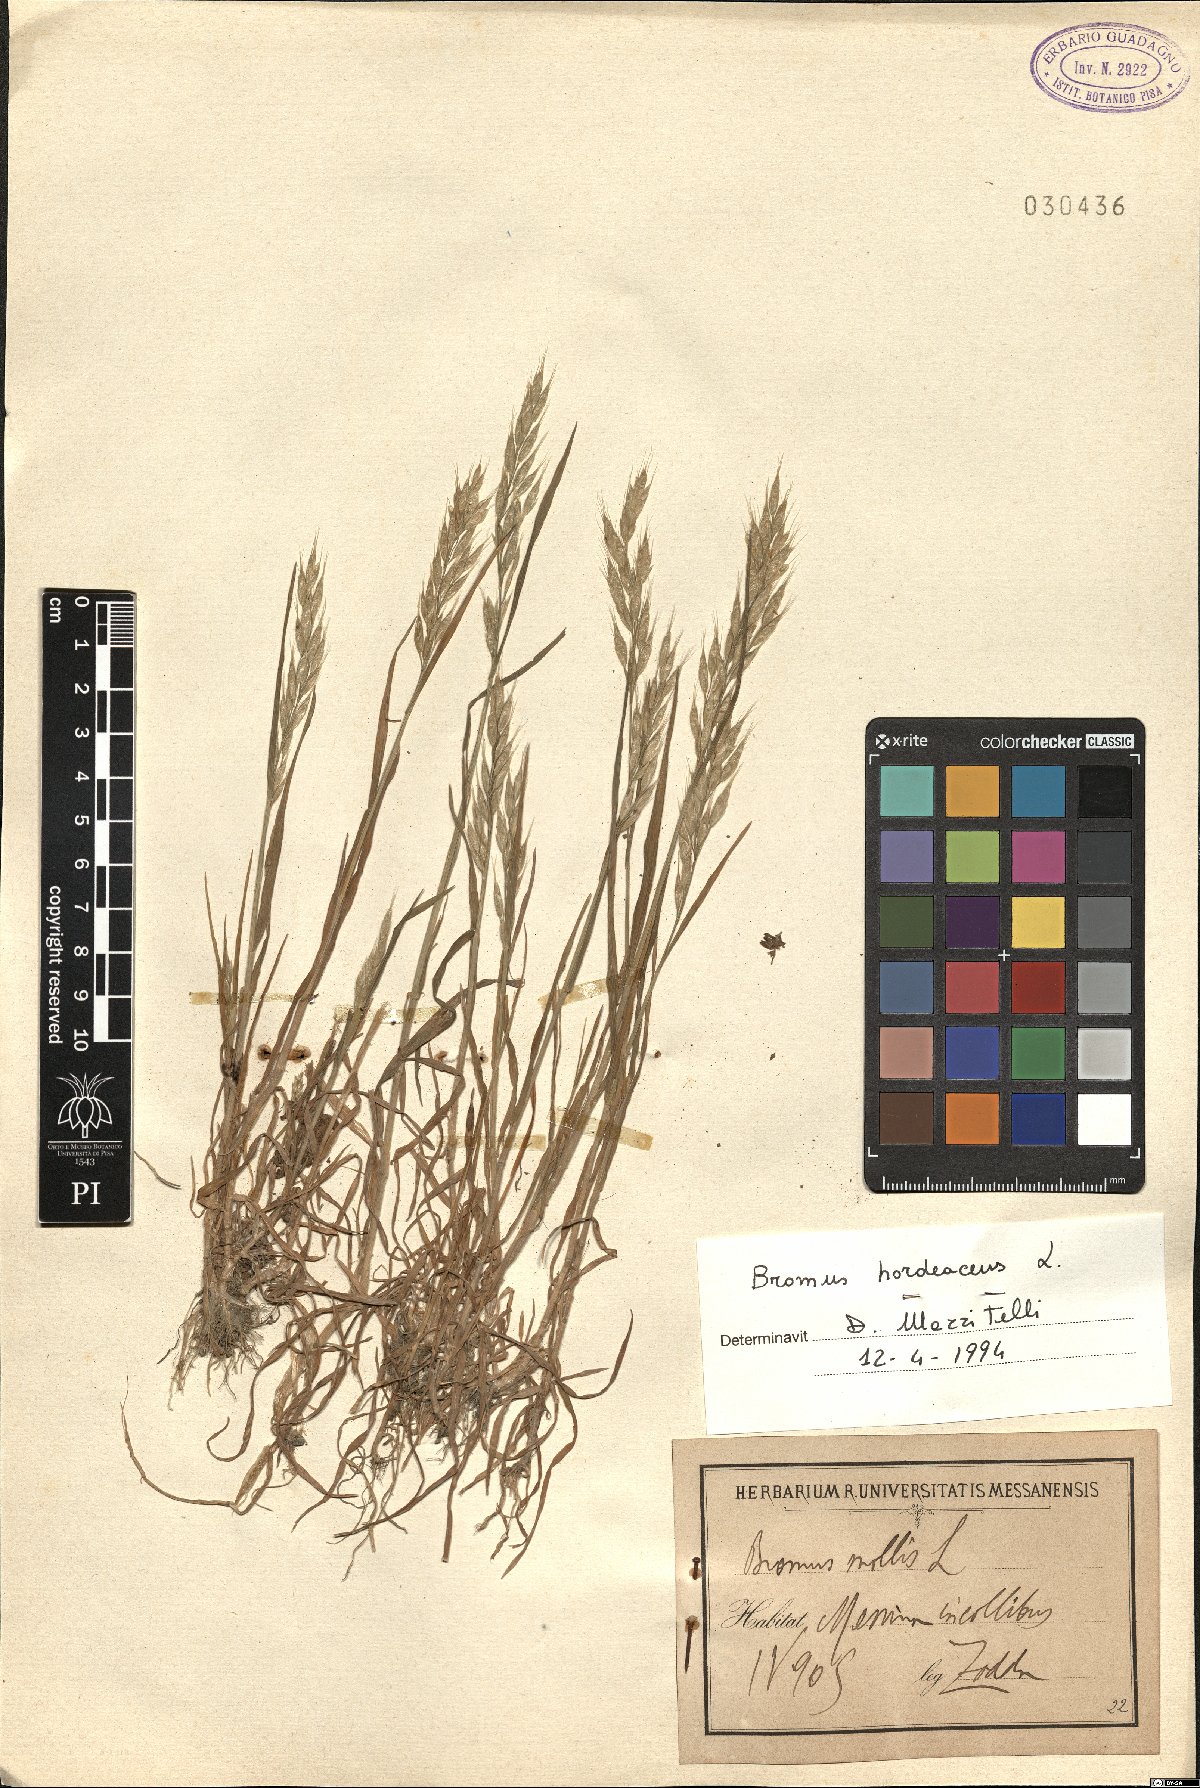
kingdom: Plantae
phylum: Tracheophyta
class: Liliopsida
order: Poales
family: Poaceae
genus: Bromus
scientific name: Bromus hordeaceus
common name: Soft brome
